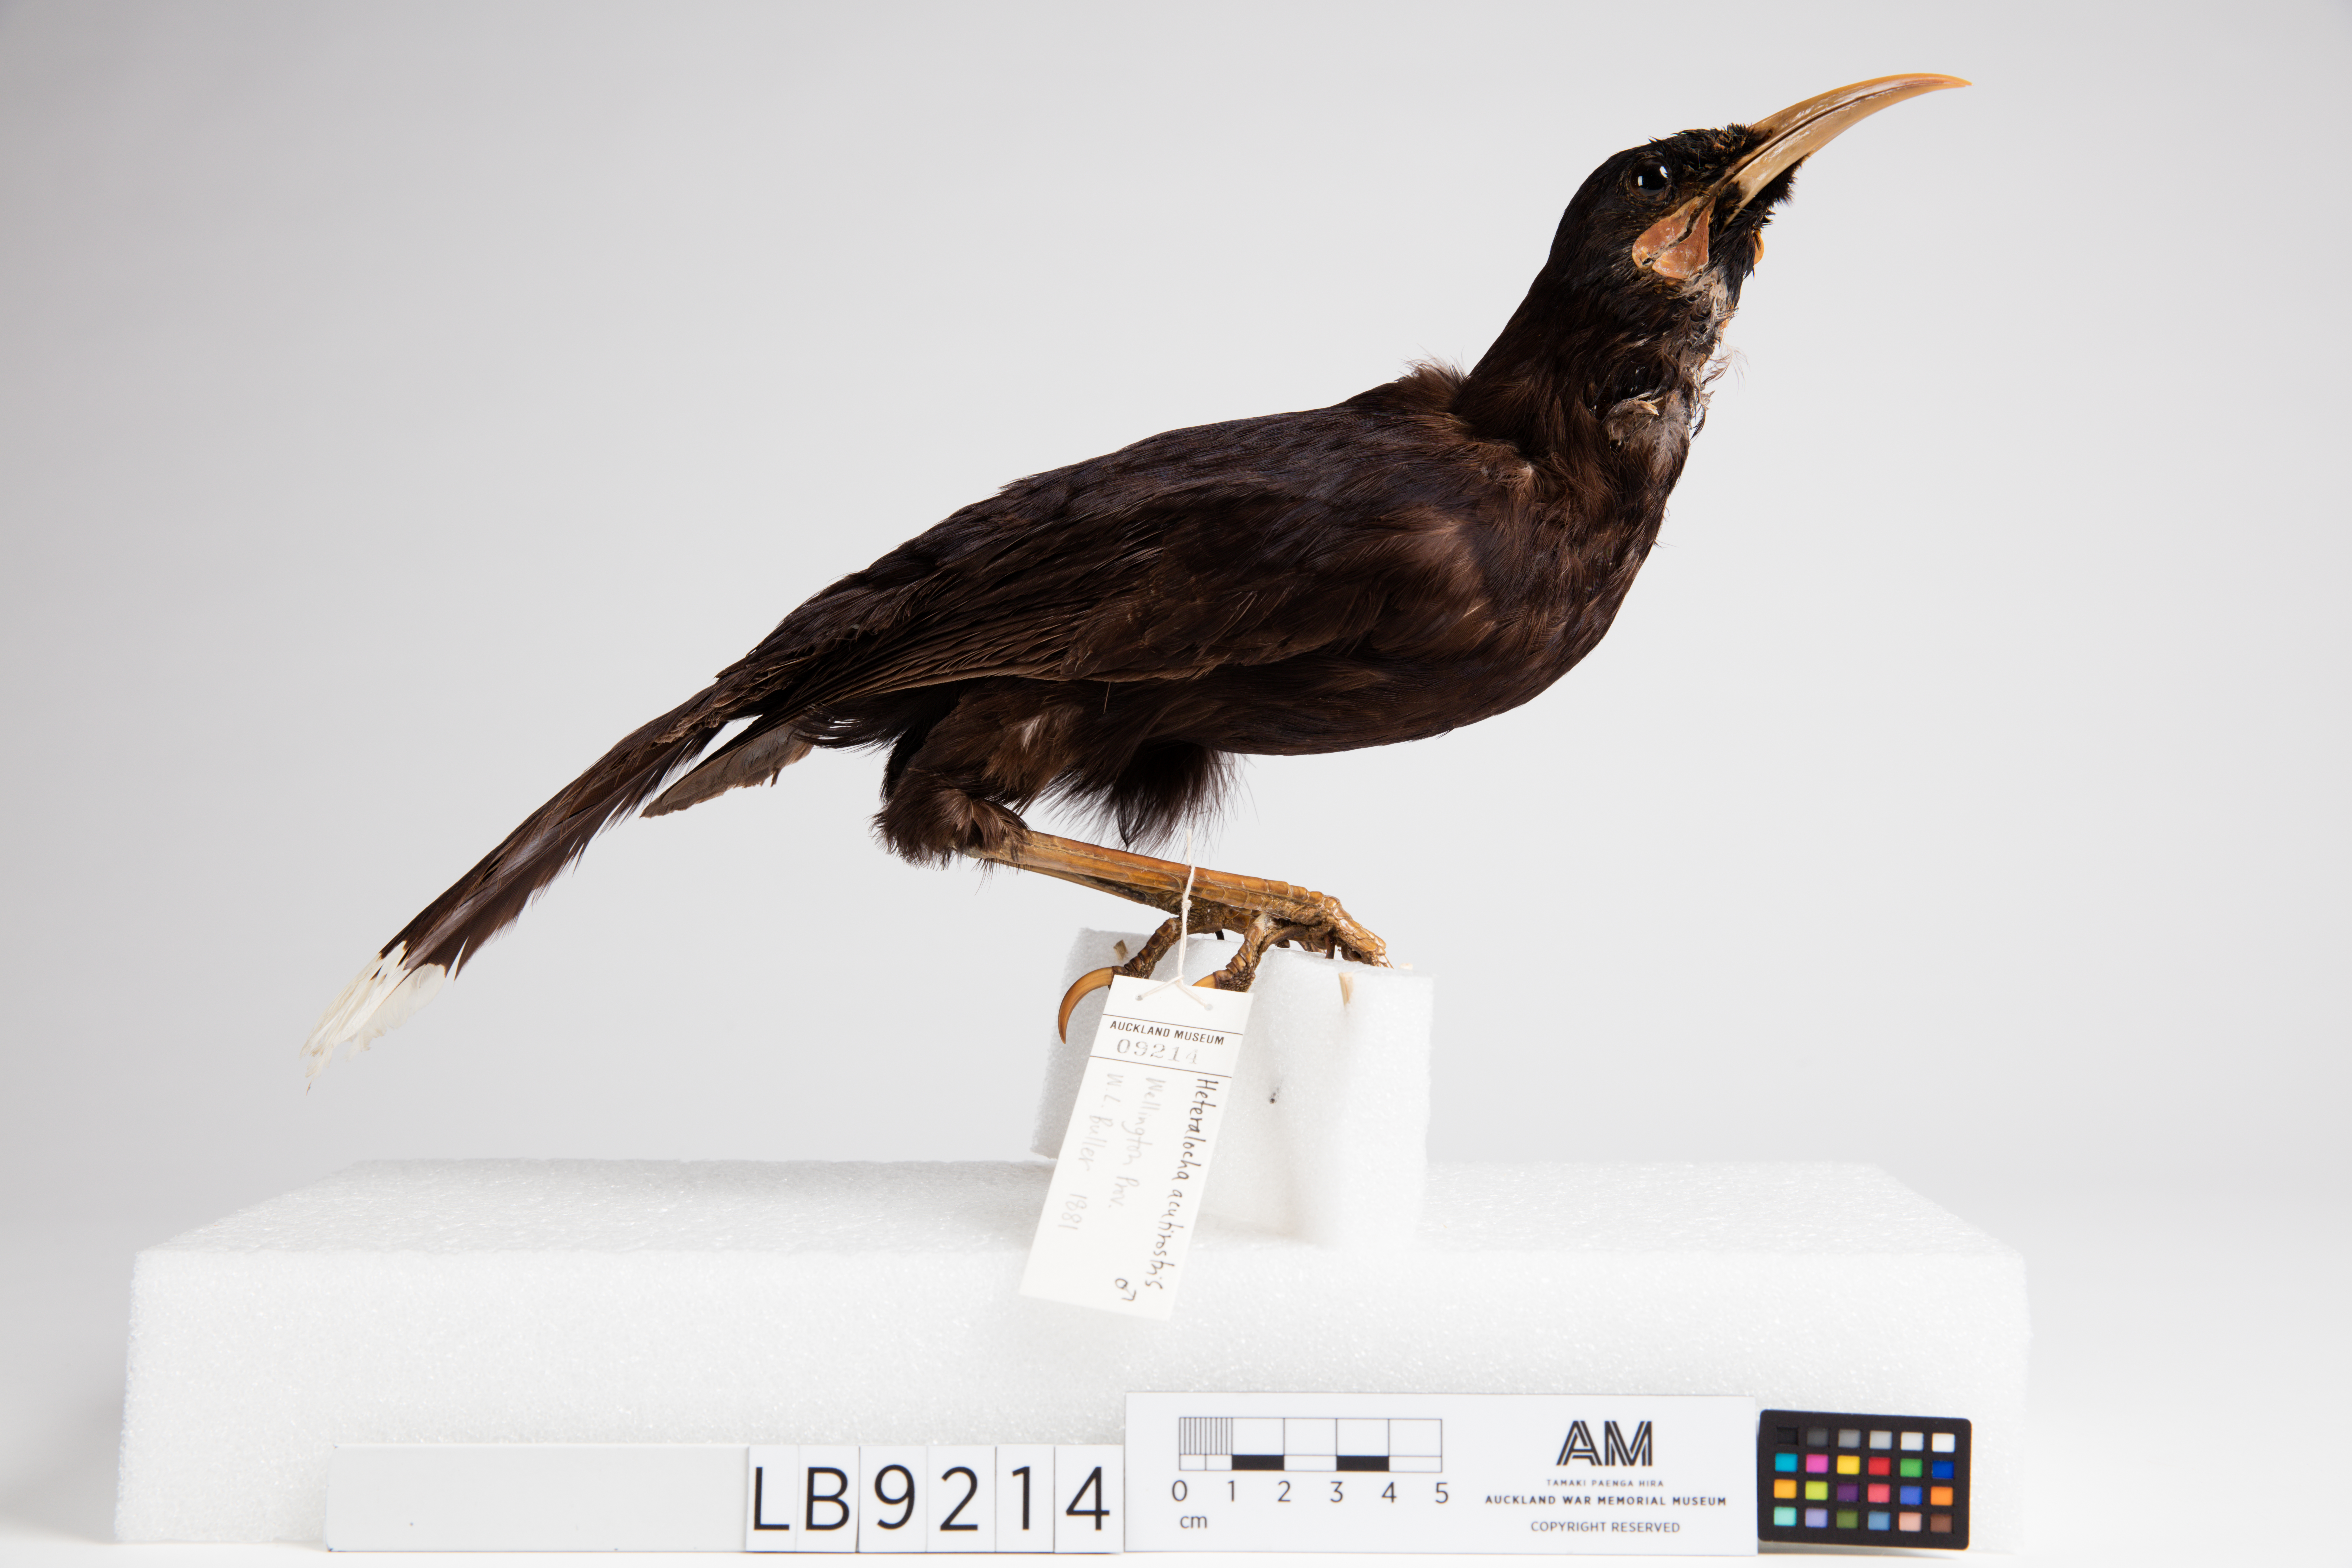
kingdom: Animalia
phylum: Chordata
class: Aves
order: Passeriformes
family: Callaeatidae
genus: Heteralocha
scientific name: Heteralocha acutirostris
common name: Huia
